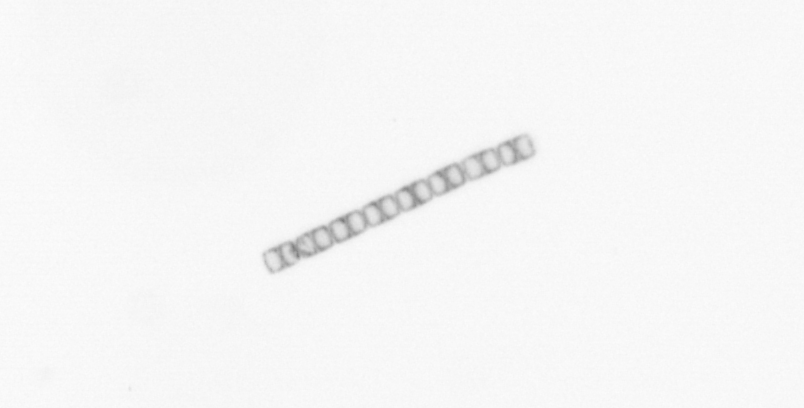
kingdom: Chromista
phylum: Ochrophyta
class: Bacillariophyceae
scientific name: Bacillariophyceae
